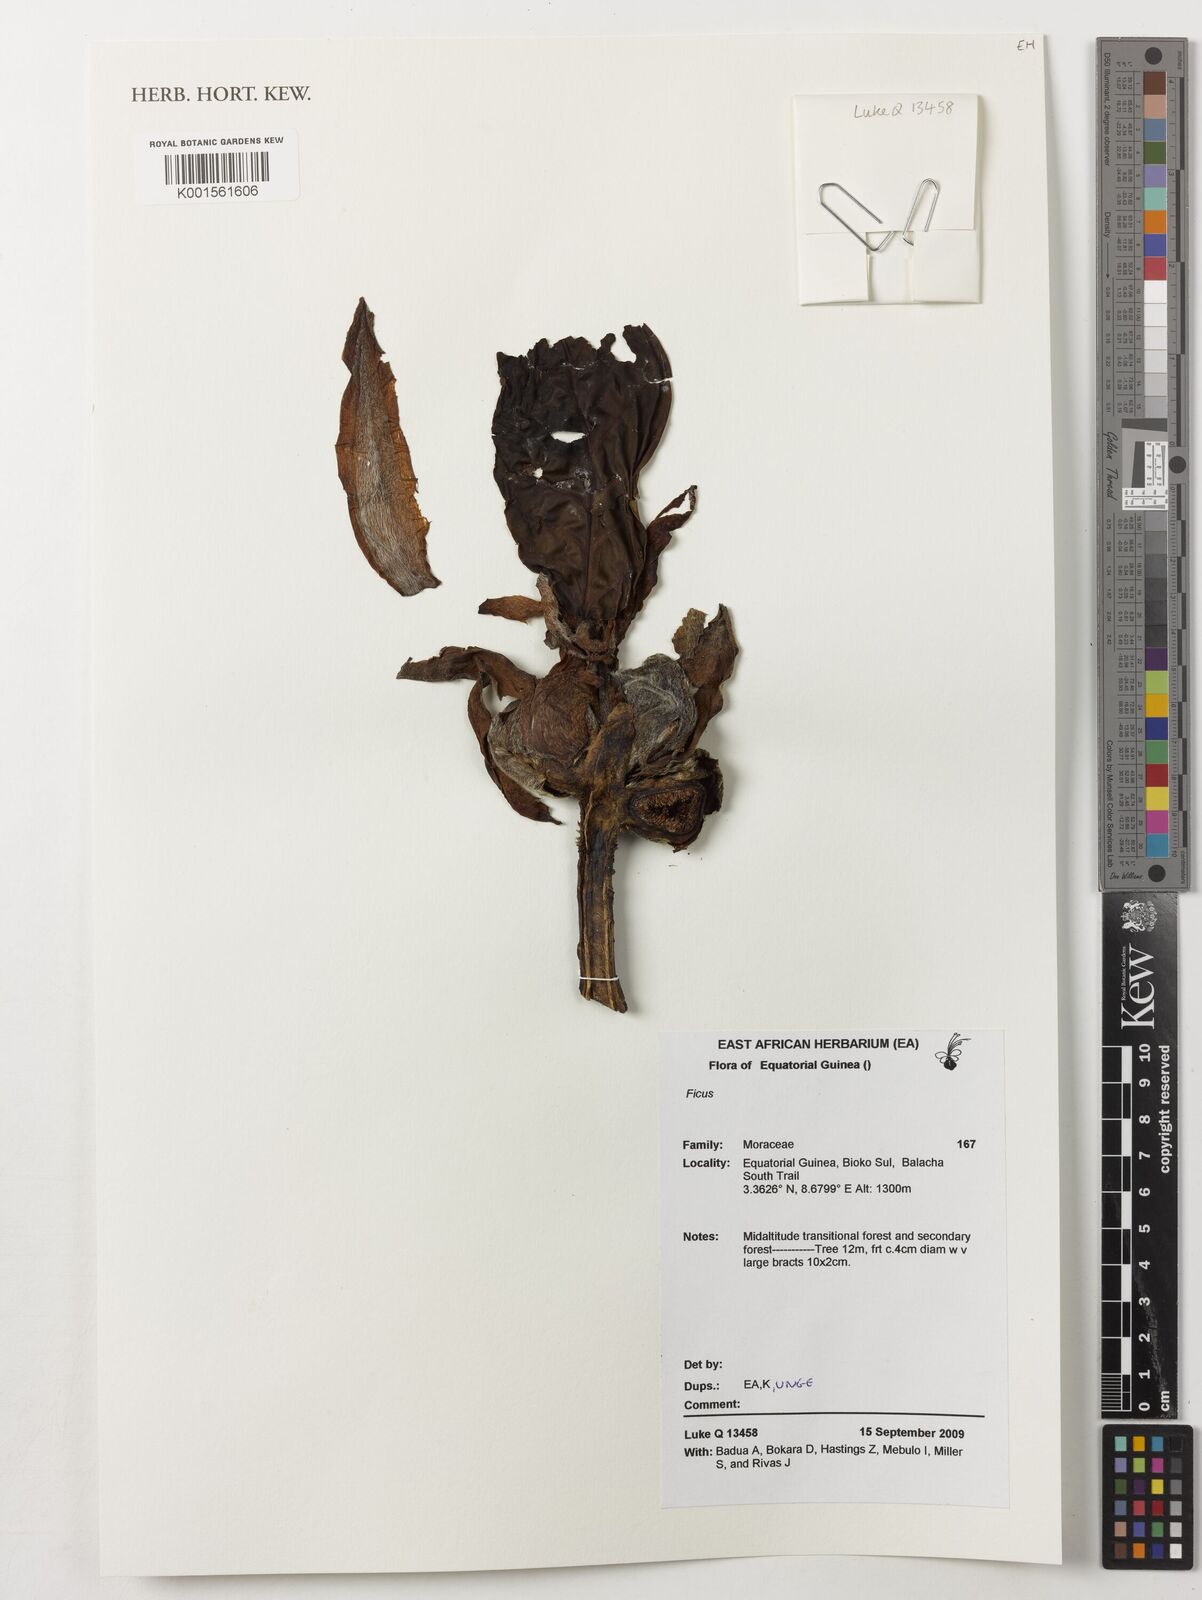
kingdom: Plantae
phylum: Tracheophyta
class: Magnoliopsida
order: Rosales
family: Moraceae
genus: Ficus
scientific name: Ficus
